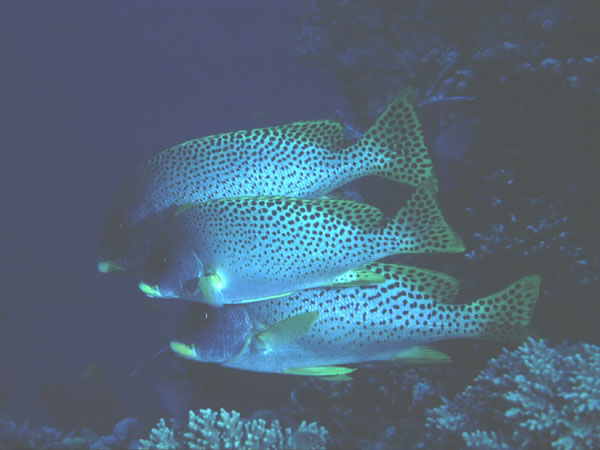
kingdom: Animalia
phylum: Chordata
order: Perciformes
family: Haemulidae
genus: Plectorhinchus
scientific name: Plectorhinchus gaterinus
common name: Blackspotted rubberlip
